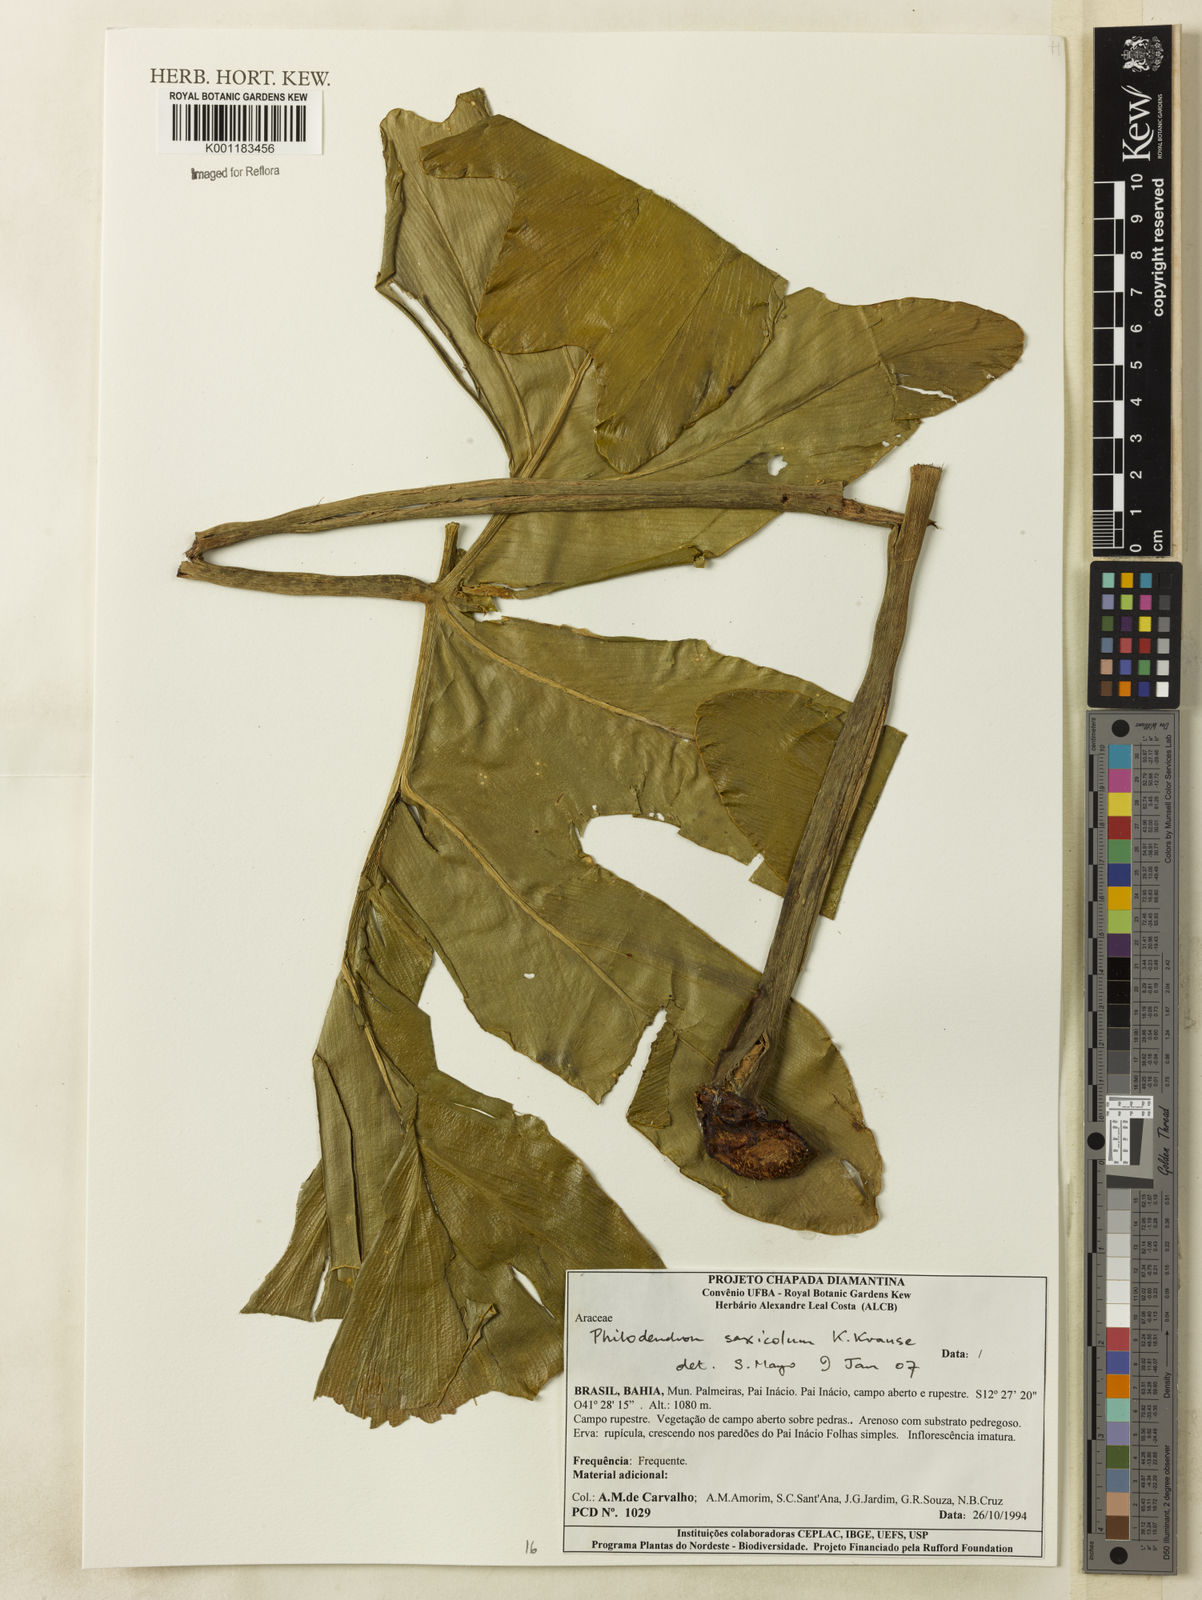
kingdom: Plantae
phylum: Tracheophyta
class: Liliopsida
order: Alismatales
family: Araceae
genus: Thaumatophyllum
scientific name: Thaumatophyllum saxicola
